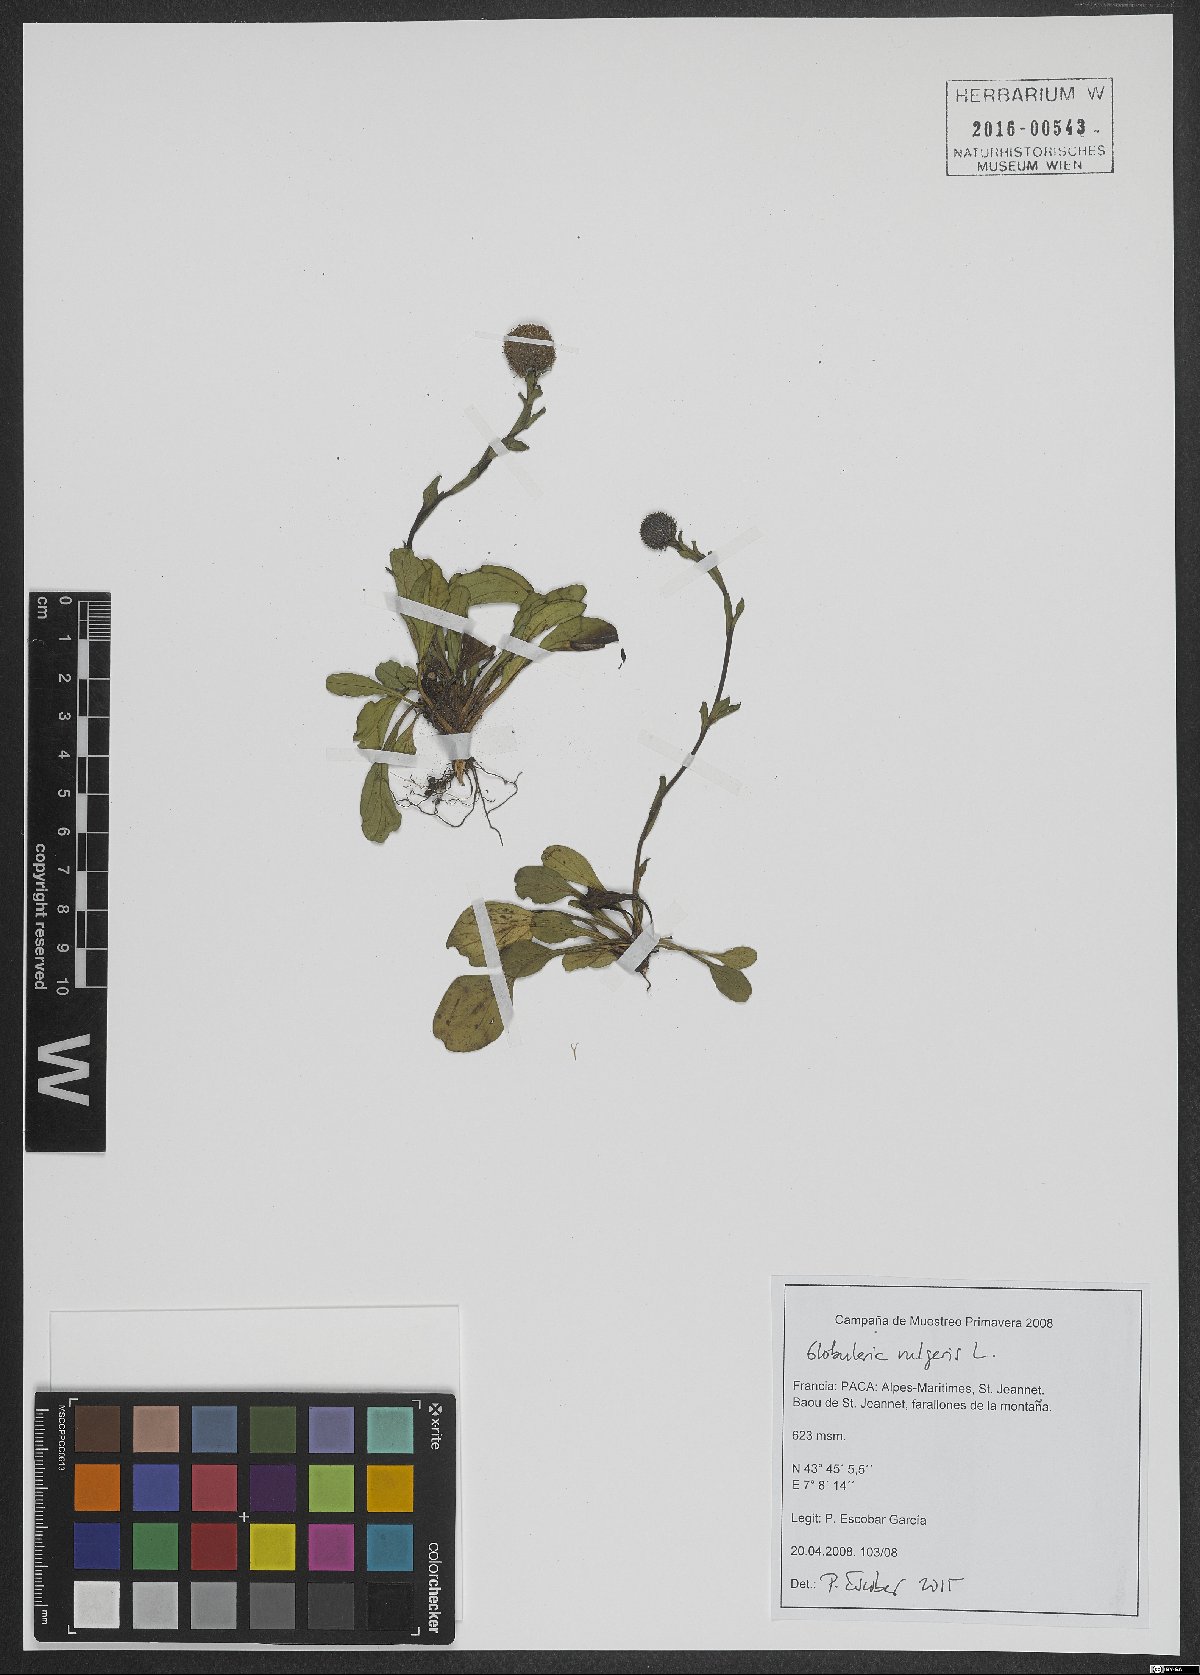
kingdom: Plantae
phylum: Tracheophyta
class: Magnoliopsida
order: Lamiales
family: Plantaginaceae
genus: Globularia
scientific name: Globularia vulgaris
